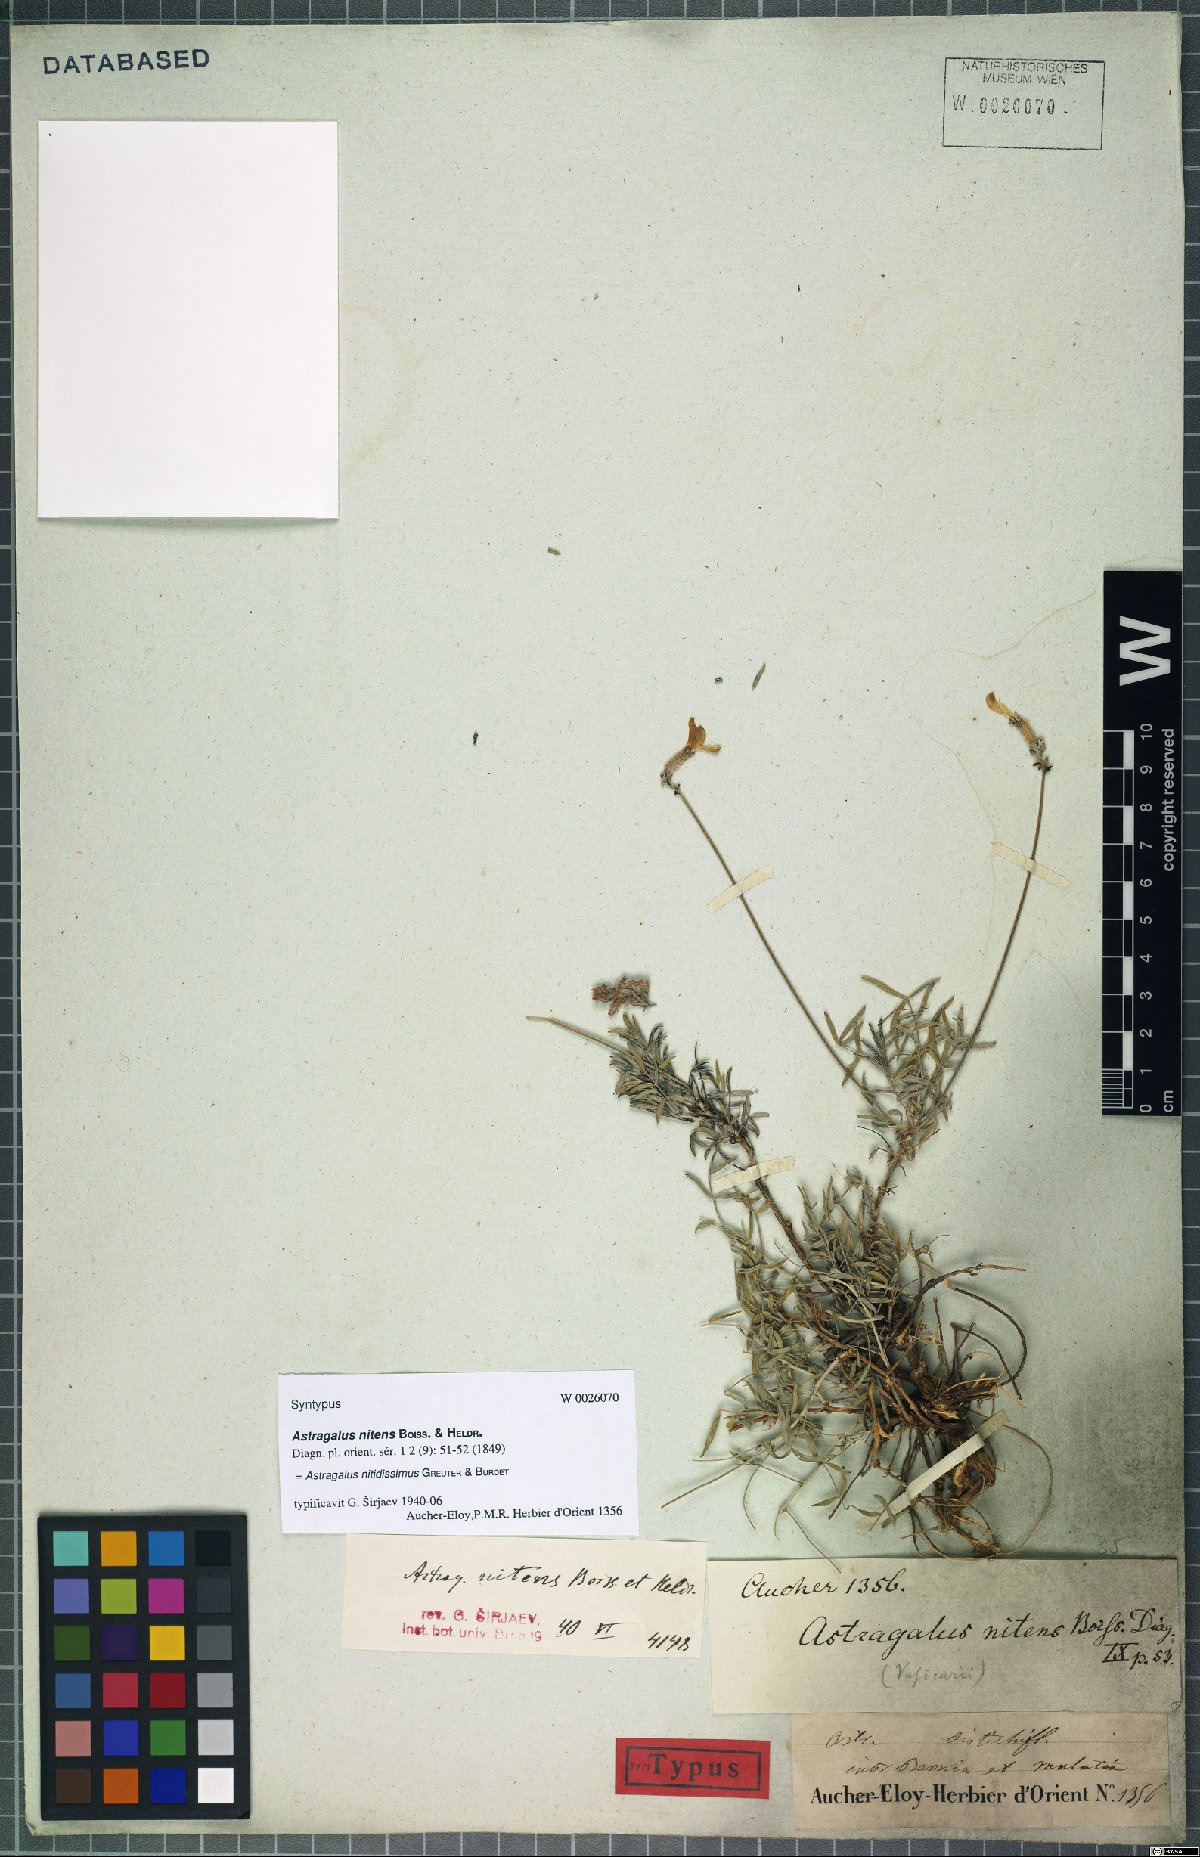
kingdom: Plantae
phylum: Tracheophyta
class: Magnoliopsida
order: Fabales
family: Fabaceae
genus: Astragalus
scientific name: Astragalus nitidissimus
